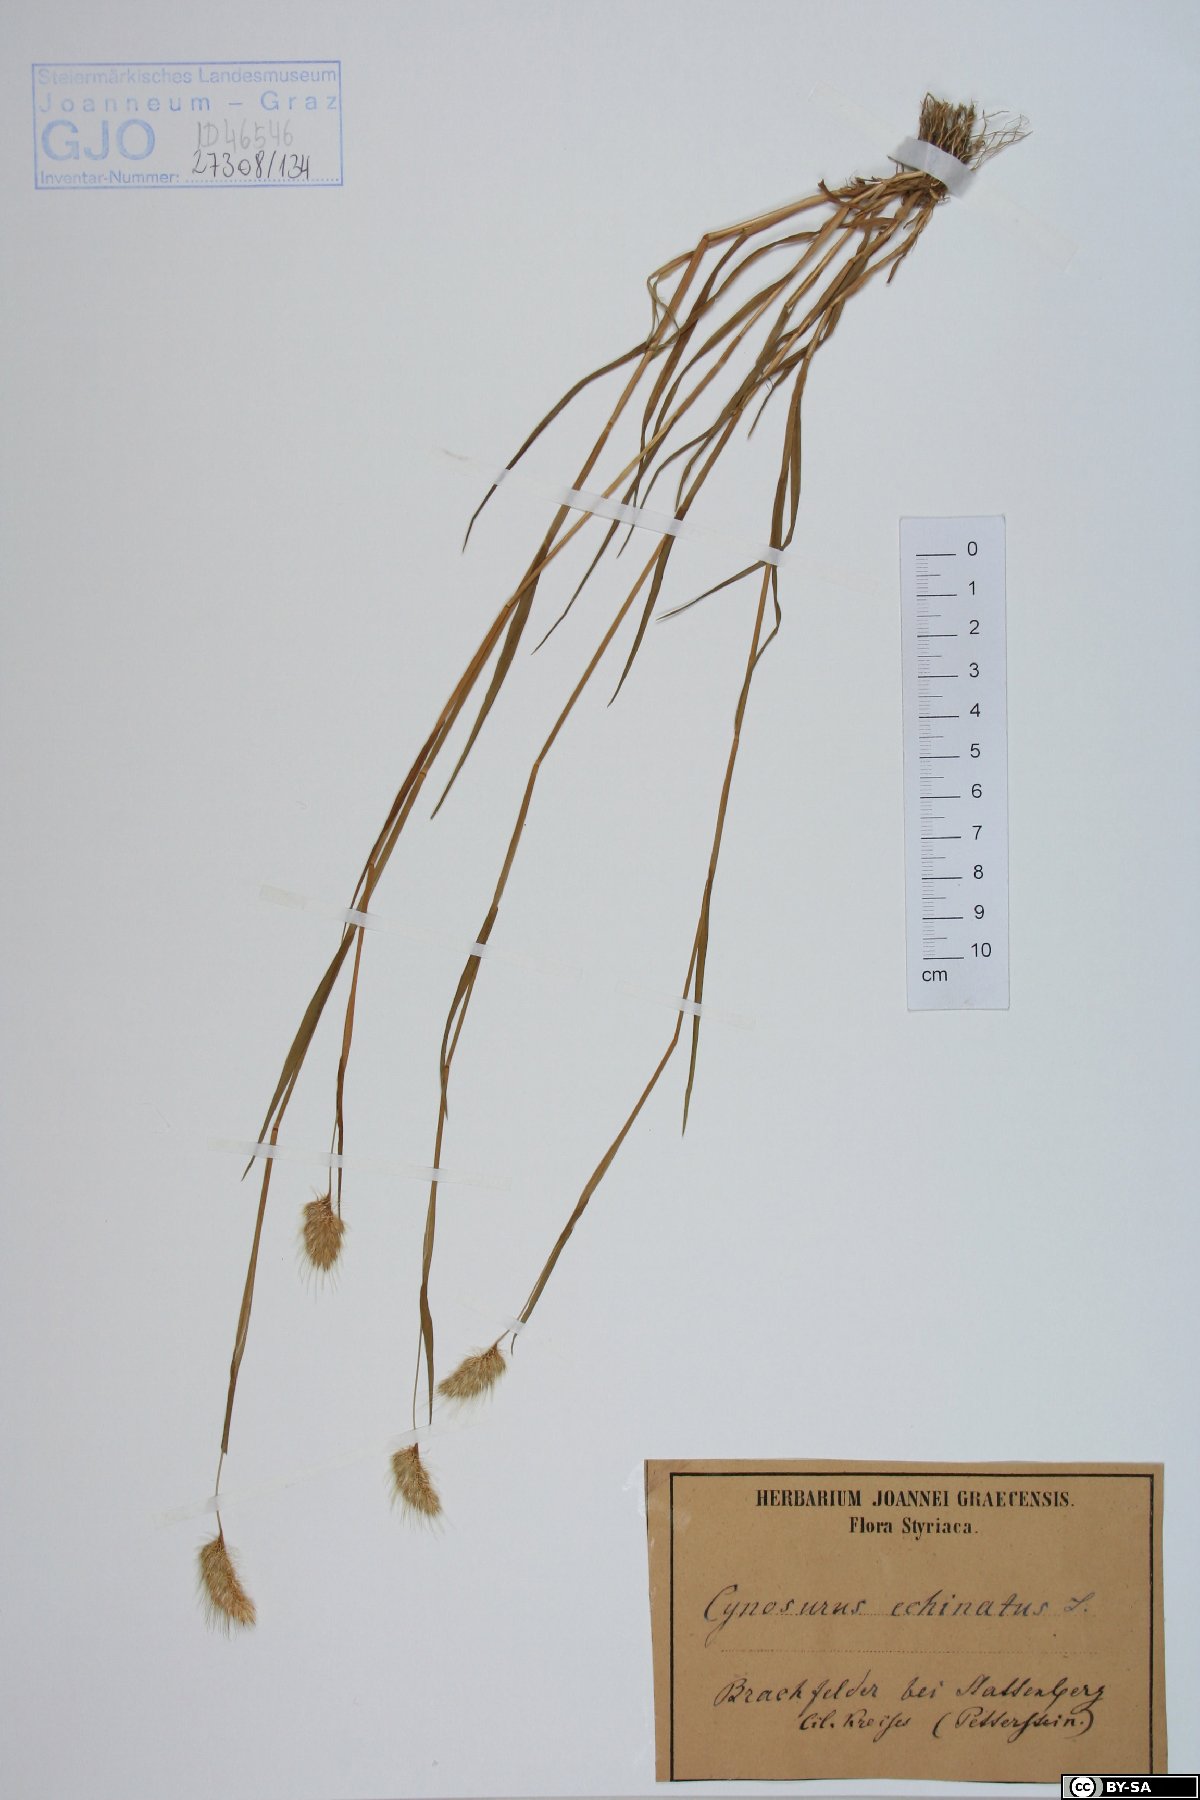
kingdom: Plantae
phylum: Tracheophyta
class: Liliopsida
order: Poales
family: Poaceae
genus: Cynosurus
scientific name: Cynosurus echinatus
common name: Rough dog's-tail
